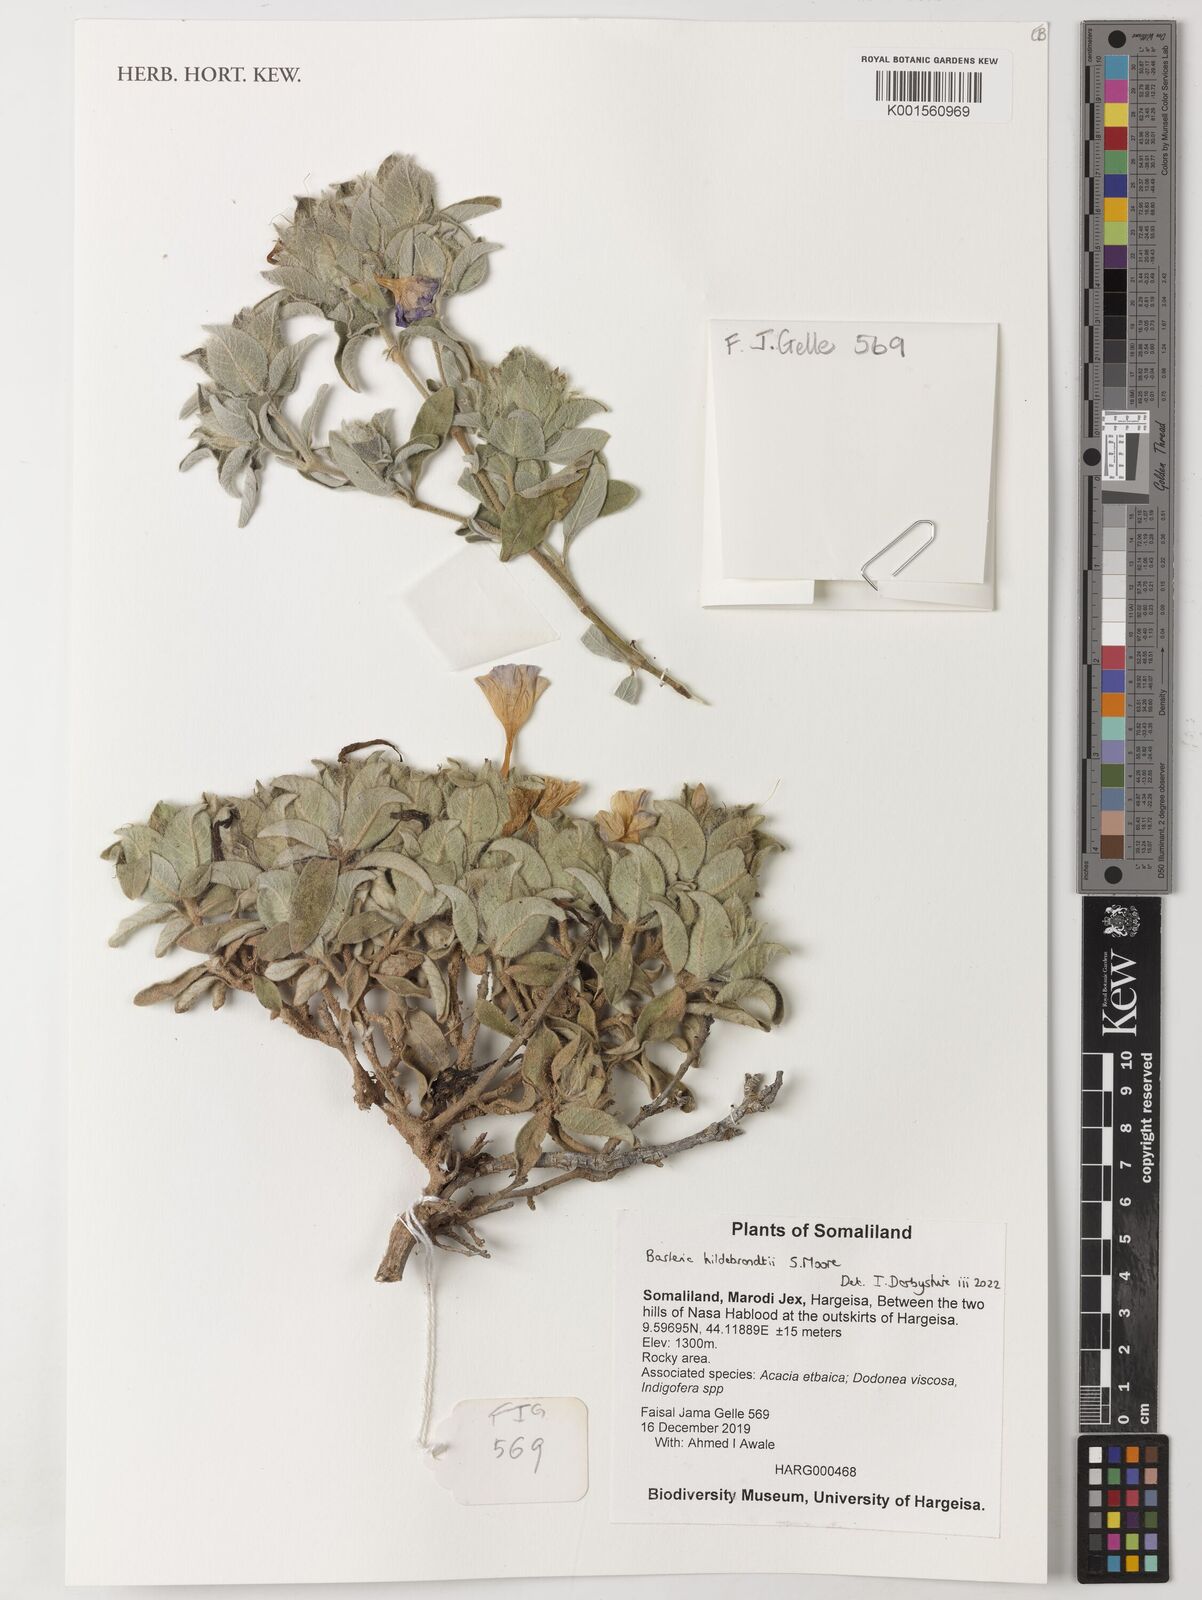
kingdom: Plantae
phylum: Tracheophyta
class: Magnoliopsida
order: Lamiales
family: Acanthaceae
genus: Barleria
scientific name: Barleria hildebrandtii
